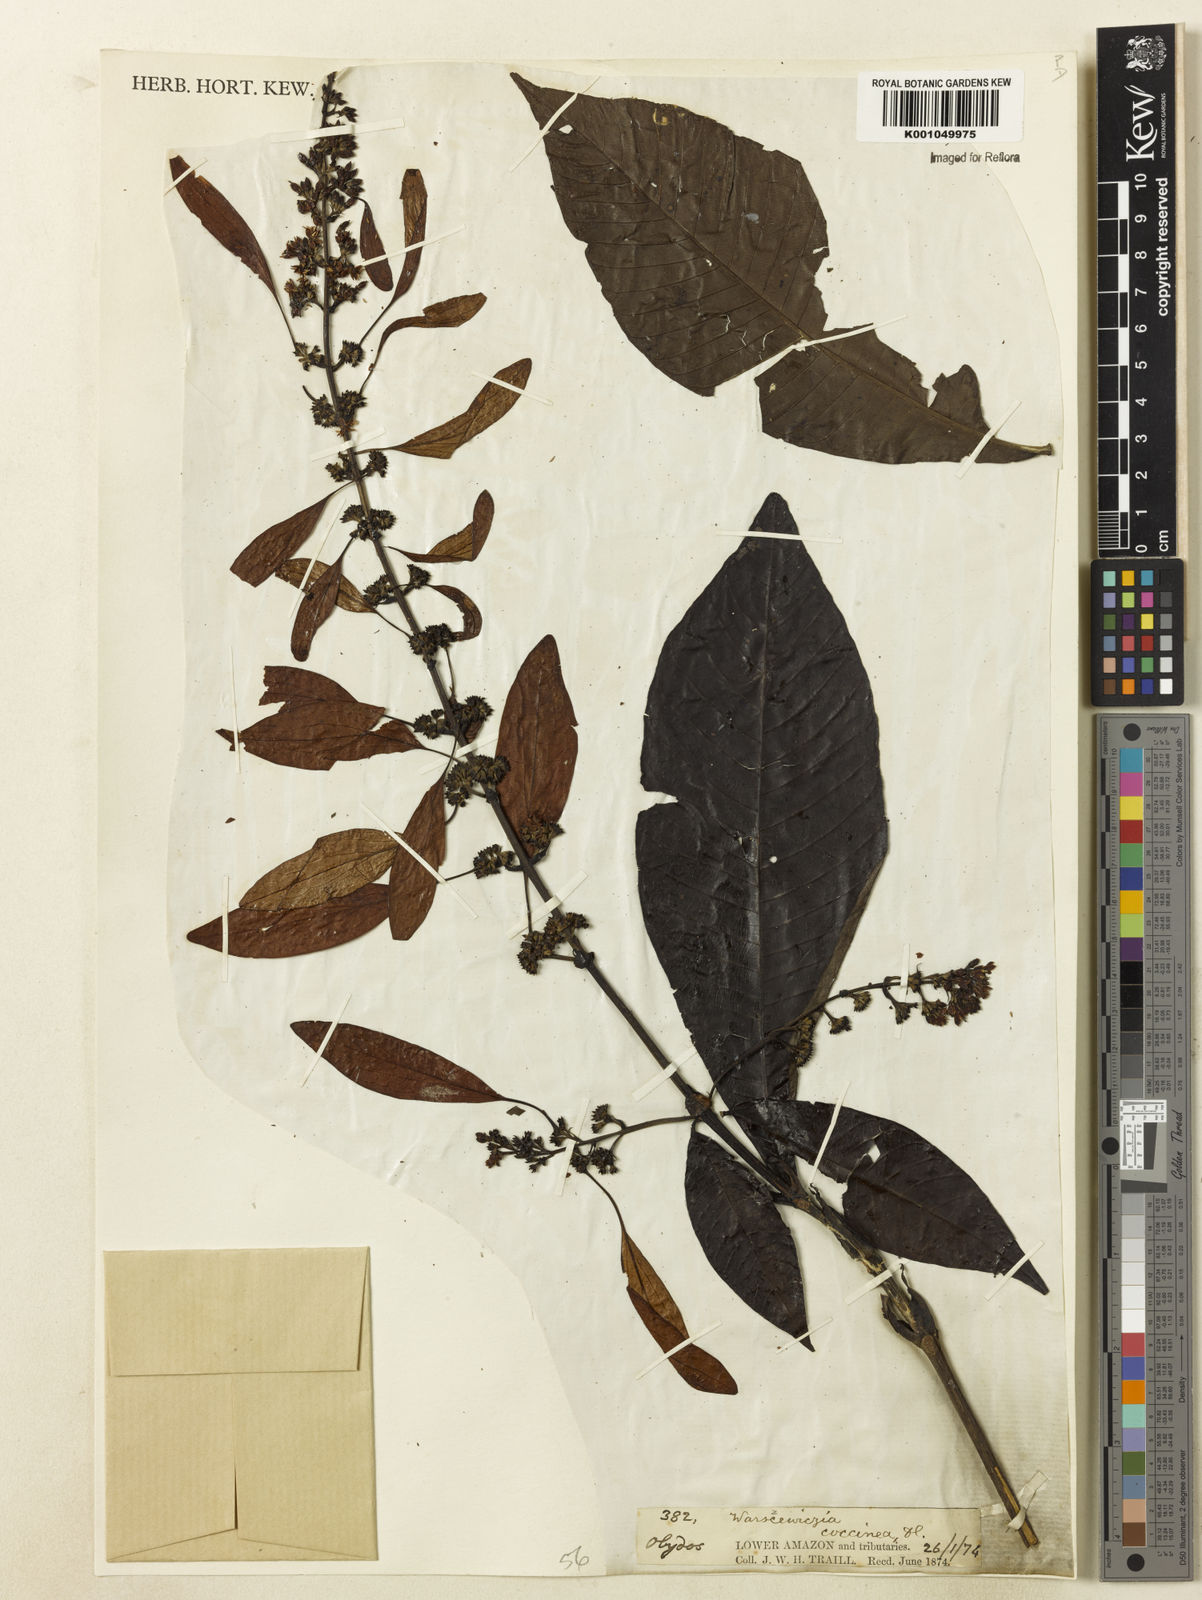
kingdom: Plantae
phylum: Tracheophyta
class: Magnoliopsida
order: Gentianales
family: Rubiaceae
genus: Warszewiczia
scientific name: Warszewiczia coccinea
